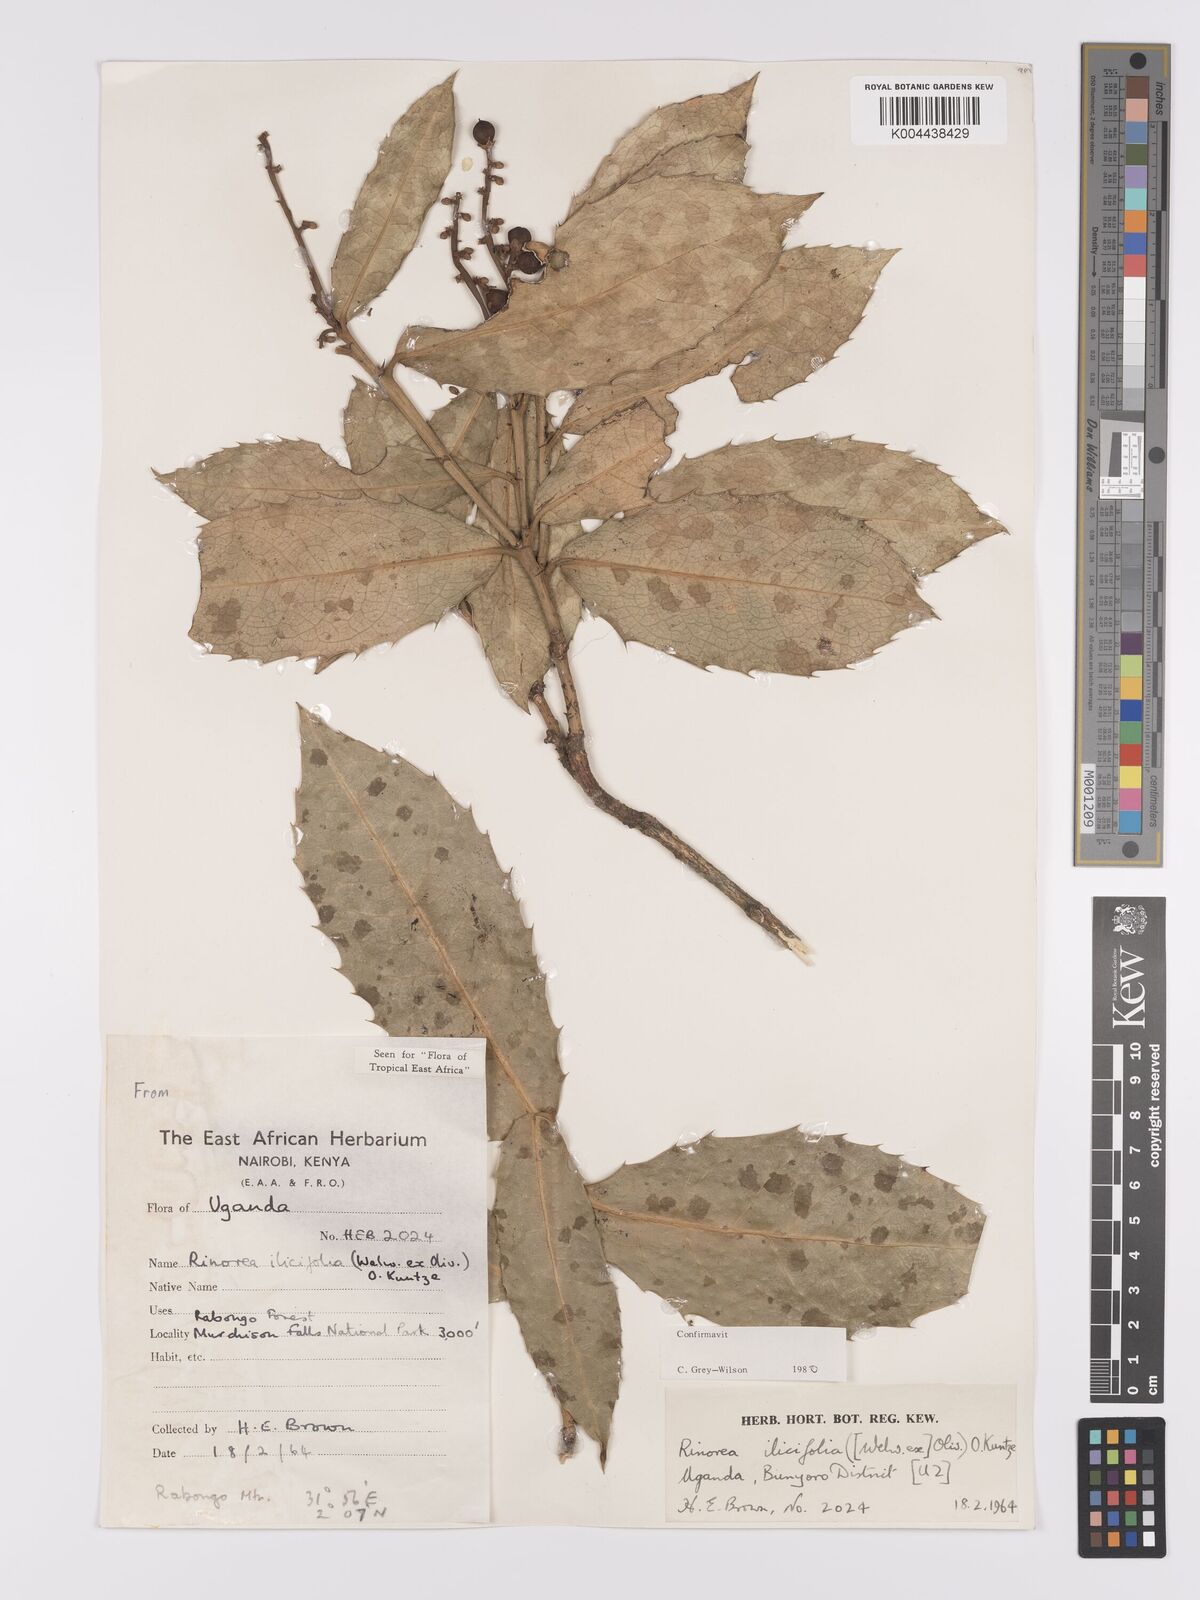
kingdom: Plantae
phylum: Tracheophyta
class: Magnoliopsida
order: Malpighiales
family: Violaceae
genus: Rinorea
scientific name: Rinorea ilicifolia
